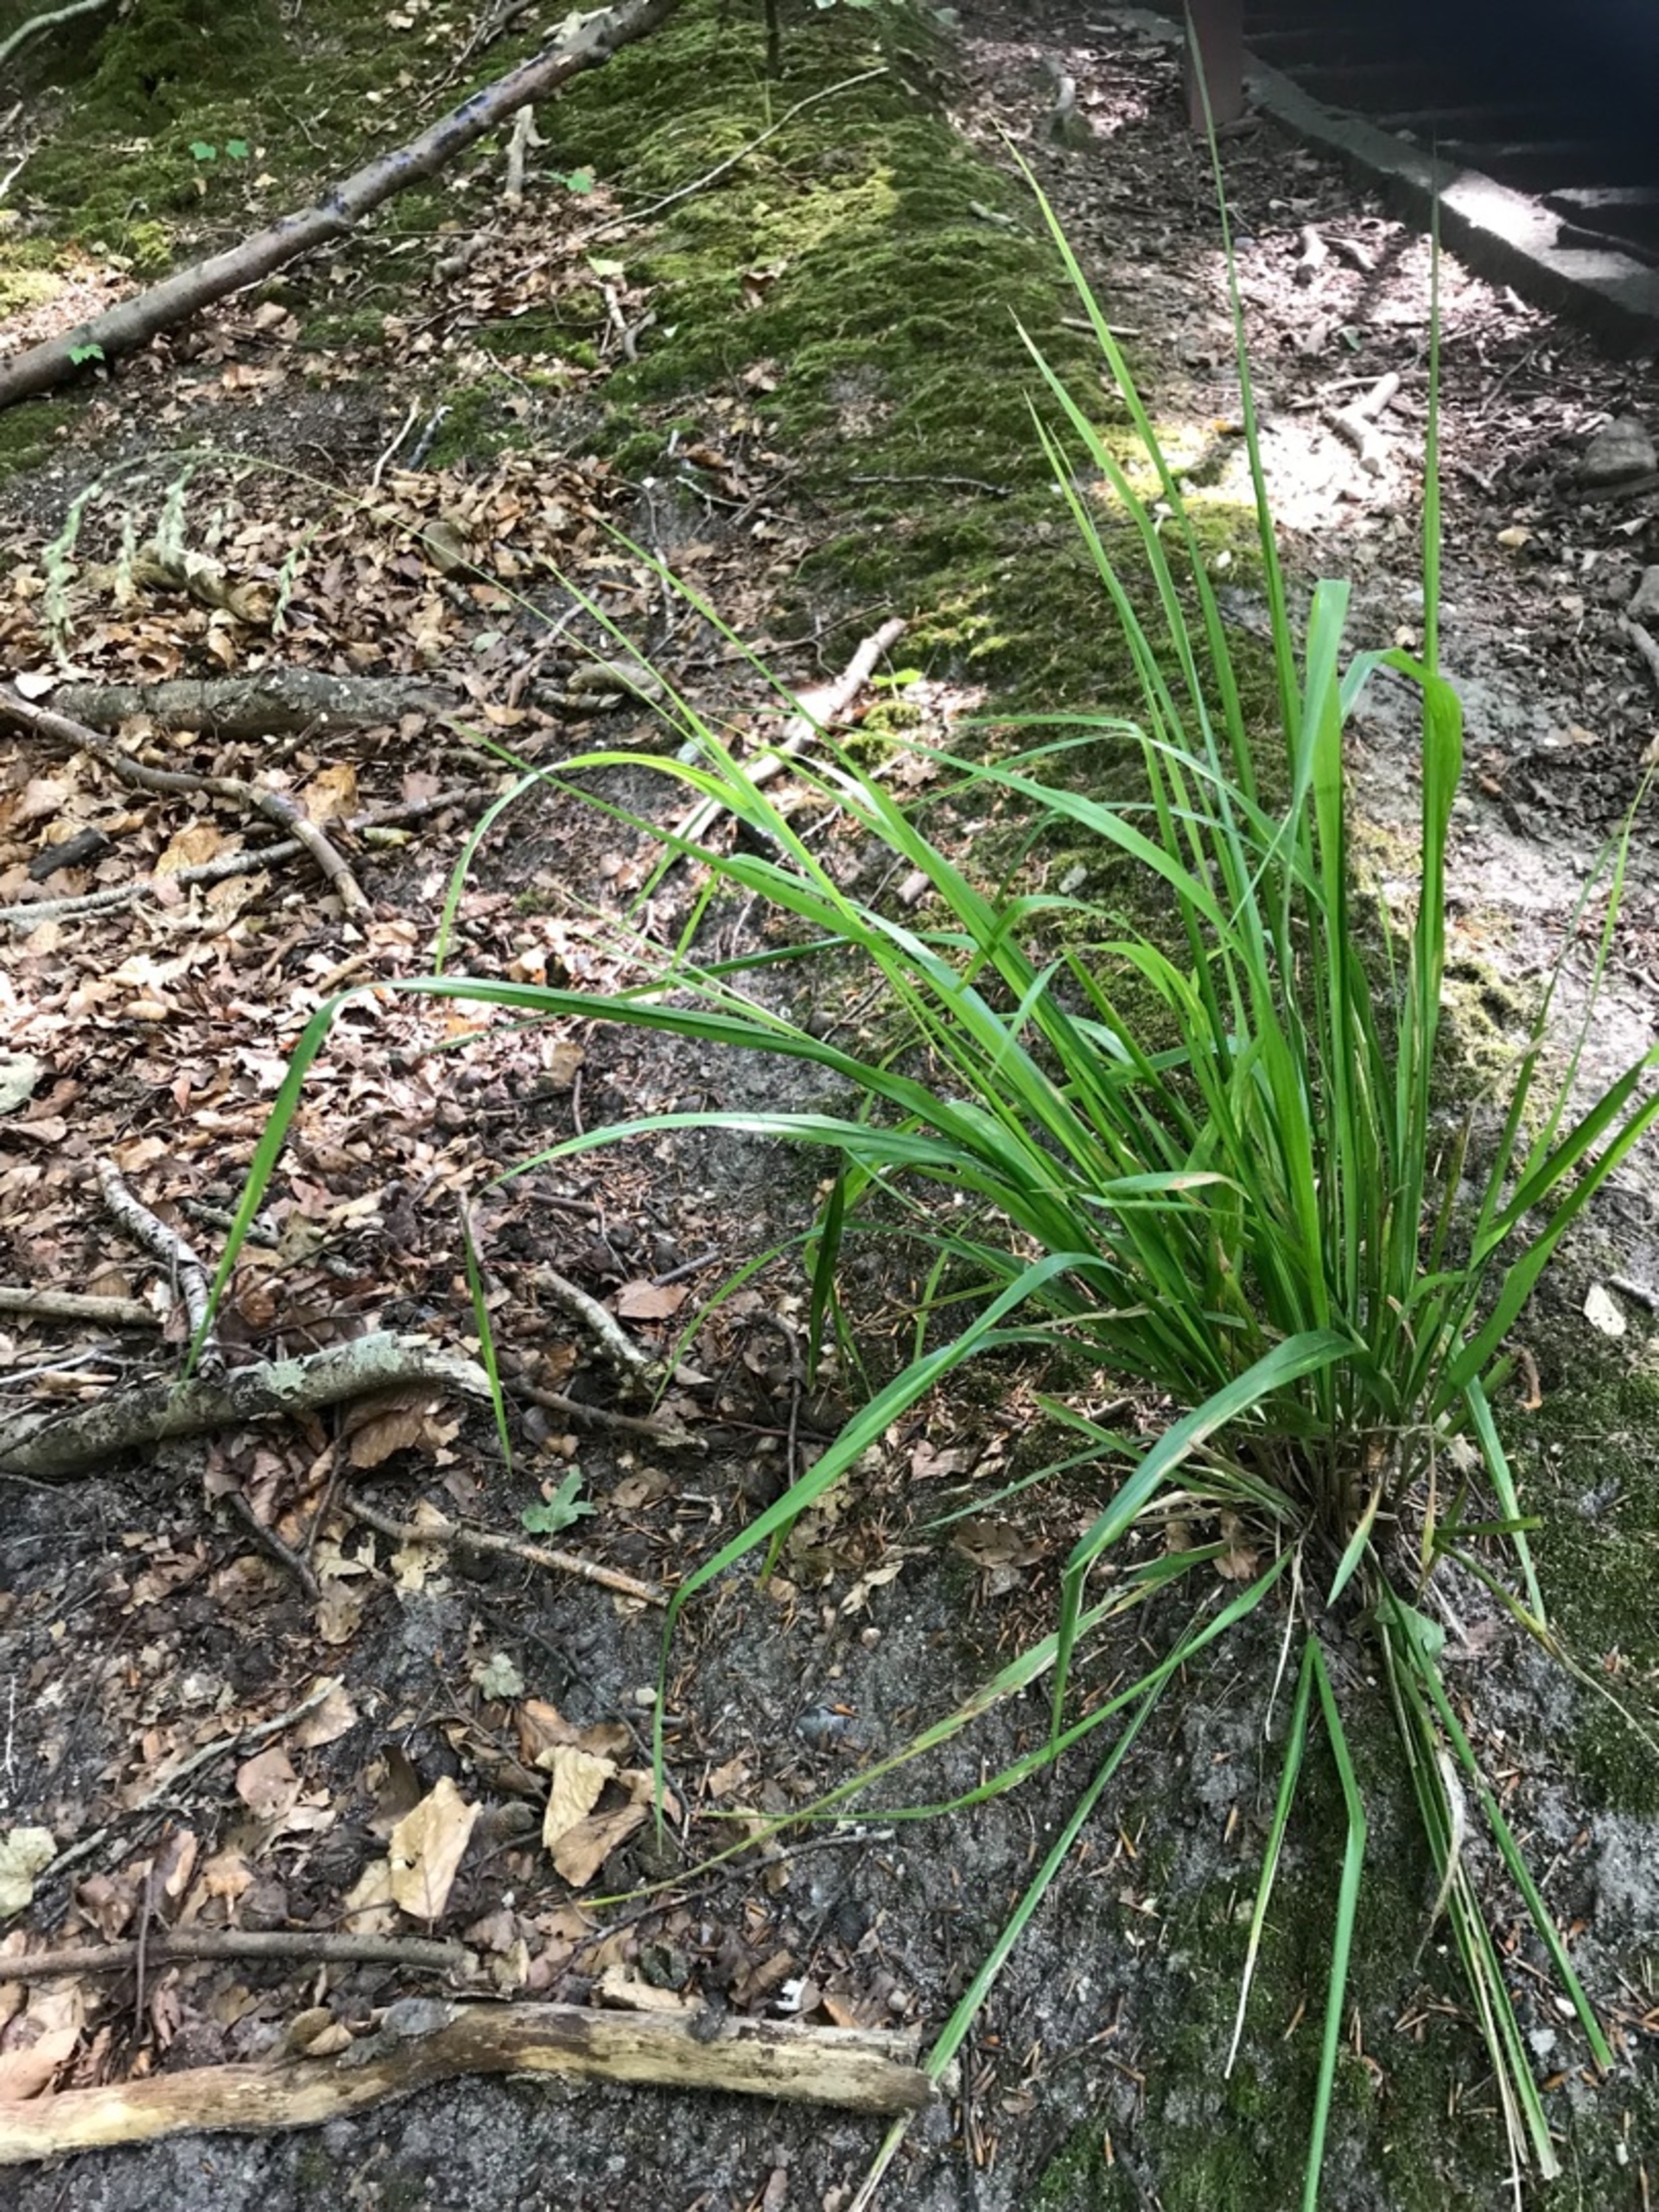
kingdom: Plantae
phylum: Tracheophyta
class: Liliopsida
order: Poales
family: Poaceae
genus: Festuca
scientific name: Festuca altissima
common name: Skov-svingel
